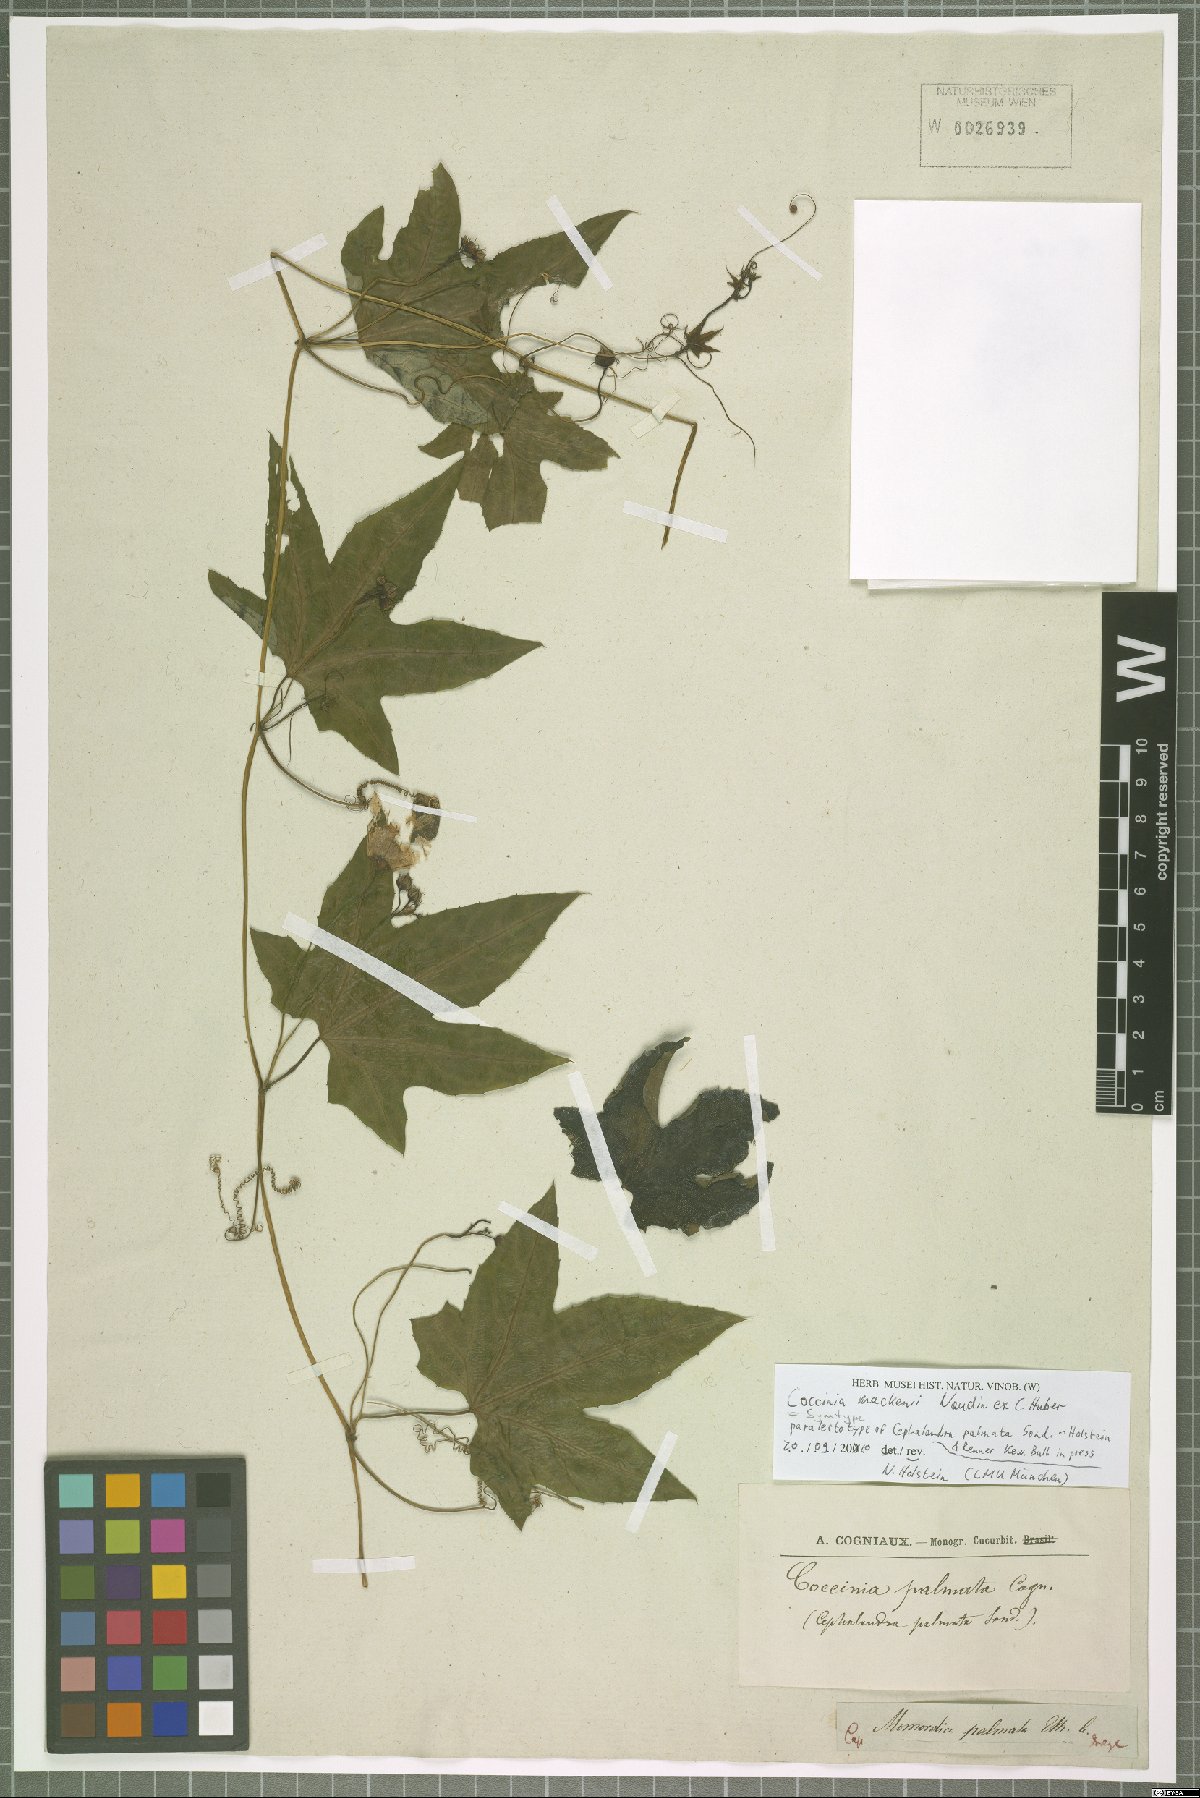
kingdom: Plantae
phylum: Tracheophyta
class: Magnoliopsida
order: Cucurbitales
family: Cucurbitaceae
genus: Coccinia
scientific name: Coccinia mackennii
